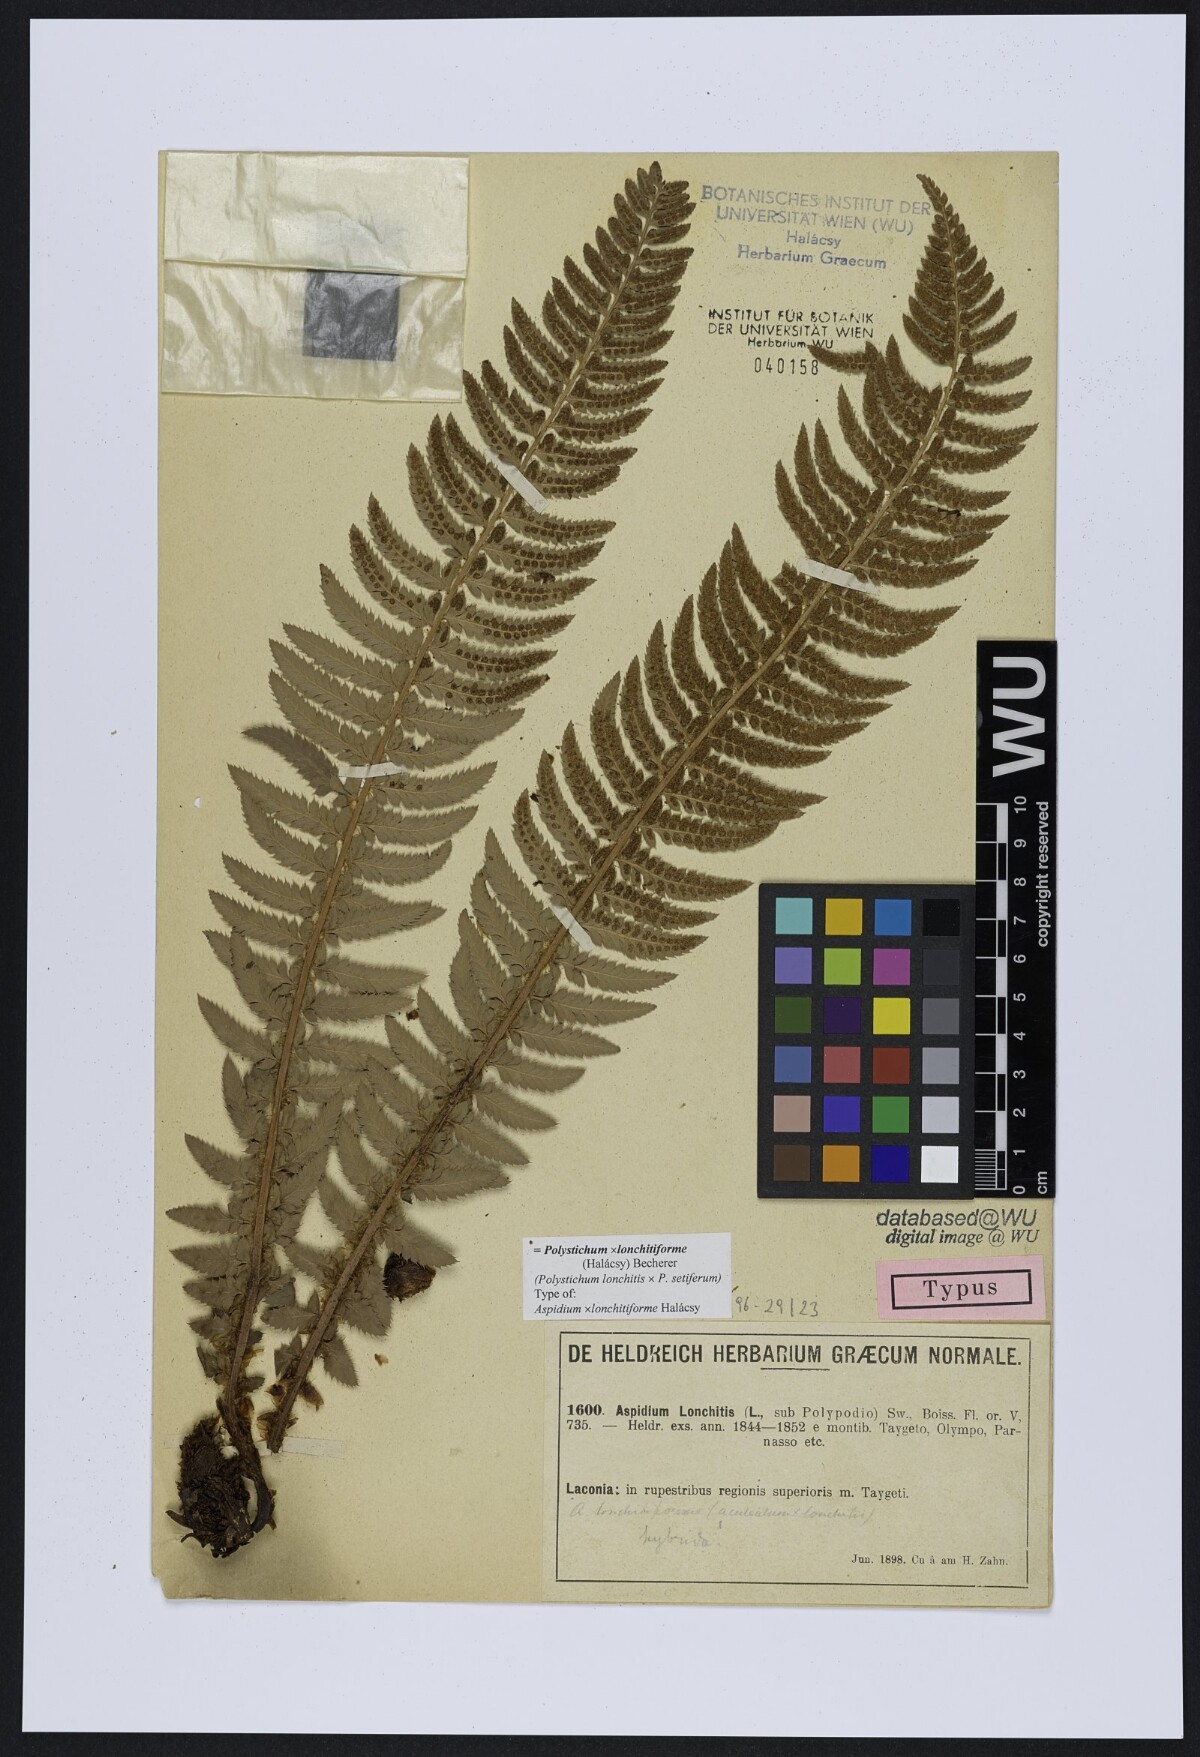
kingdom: Plantae
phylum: Tracheophyta
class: Polypodiopsida
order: Polypodiales
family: Dryopteridaceae
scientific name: Dryopteridaceae
